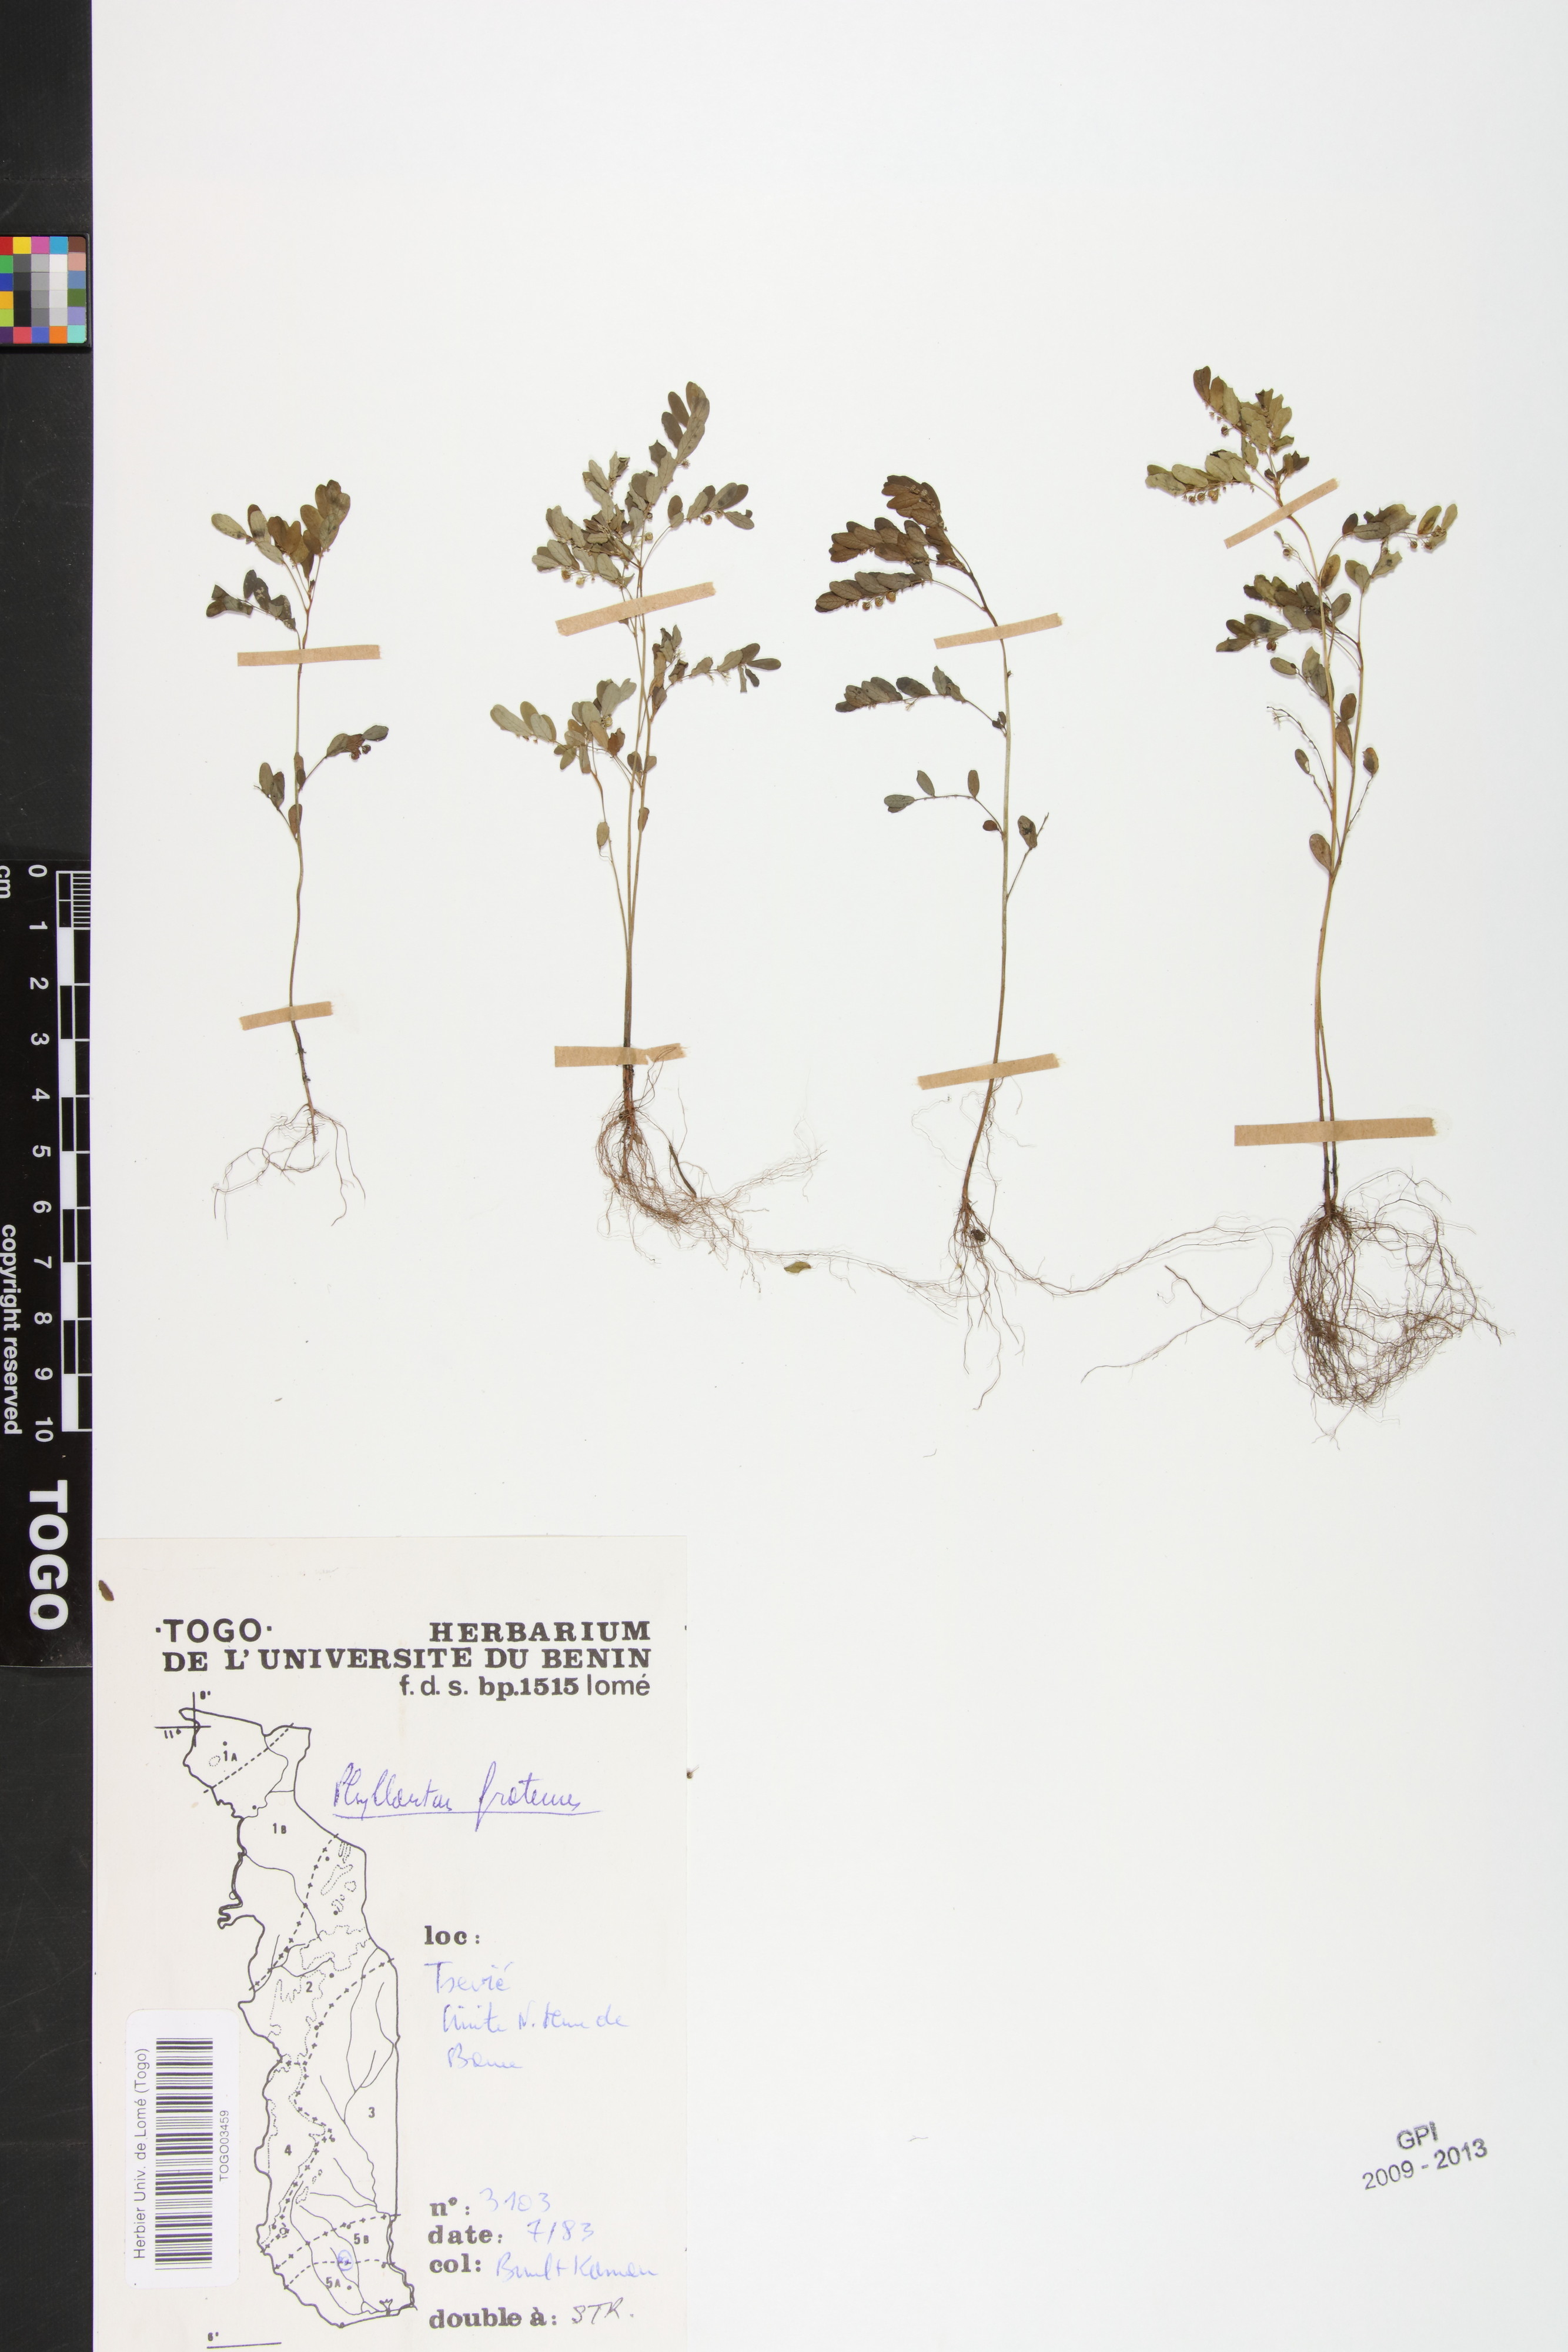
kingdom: Plantae
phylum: Tracheophyta
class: Magnoliopsida
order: Malpighiales
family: Phyllanthaceae
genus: Phyllanthus
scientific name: Phyllanthus fraternus
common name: Gulf leaf-flower
